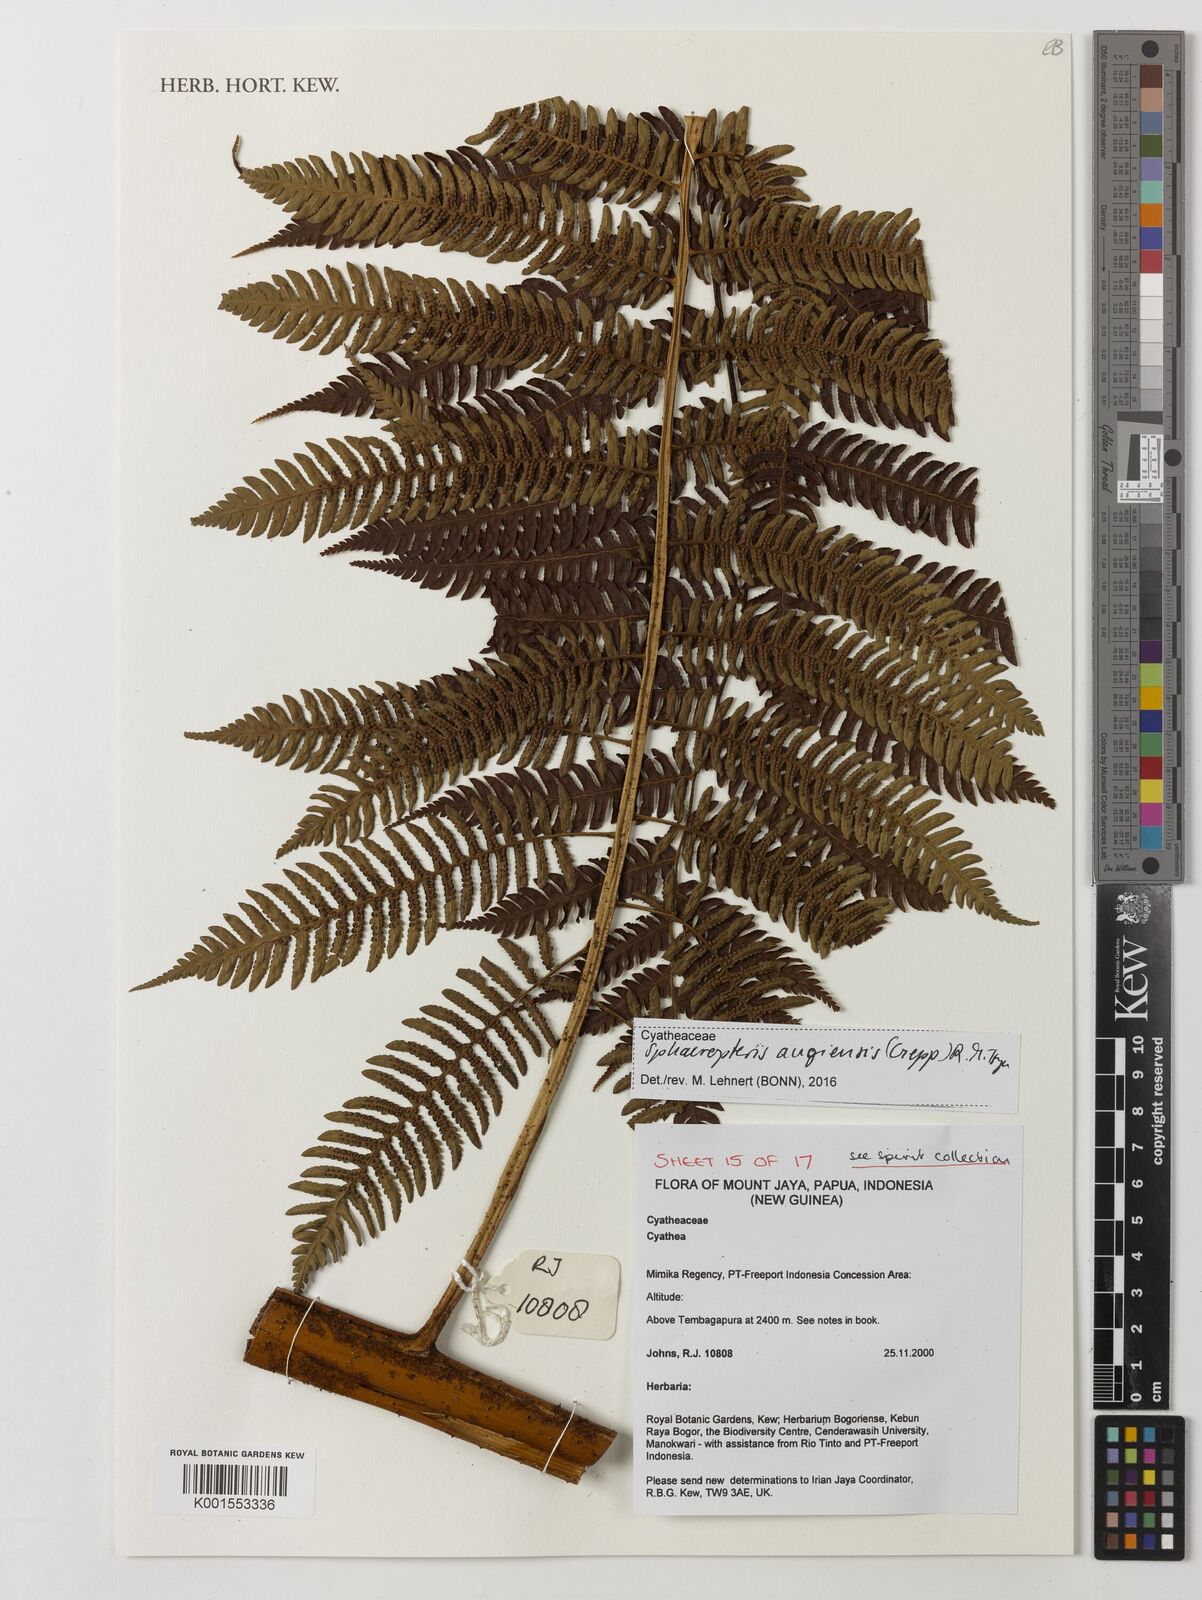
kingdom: Plantae
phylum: Tracheophyta
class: Polypodiopsida
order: Cyatheales
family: Cyatheaceae
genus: Sphaeropteris
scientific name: Sphaeropteris
